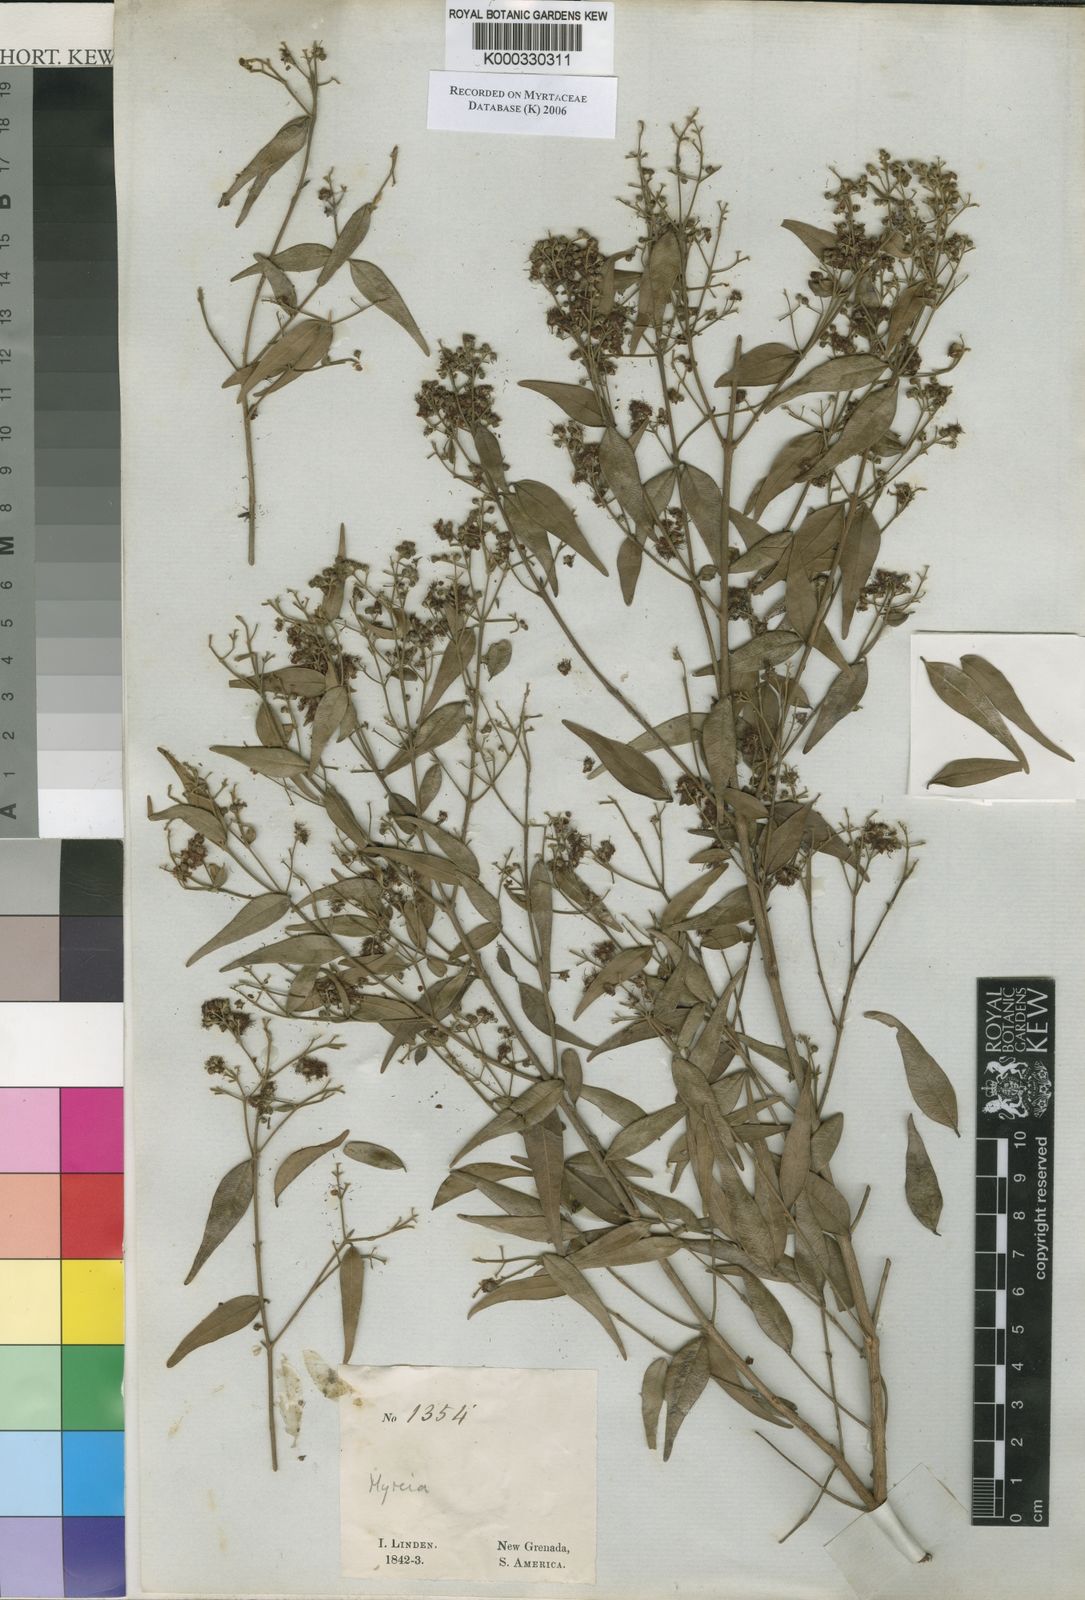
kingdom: Plantae
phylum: Tracheophyta
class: Magnoliopsida
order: Myrtales
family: Myrtaceae
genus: Myrcia
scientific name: Myrcia splendens
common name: Surinam cherry
